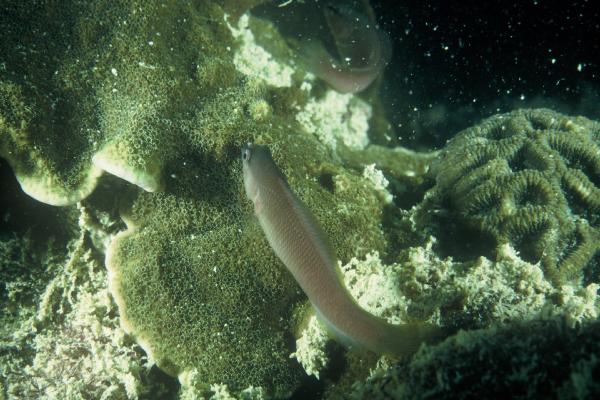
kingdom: Animalia
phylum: Chordata
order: Perciformes
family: Pseudochromidae
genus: Pseudochromis
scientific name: Pseudochromis leucorhynchus
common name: White-nosed dottyback
